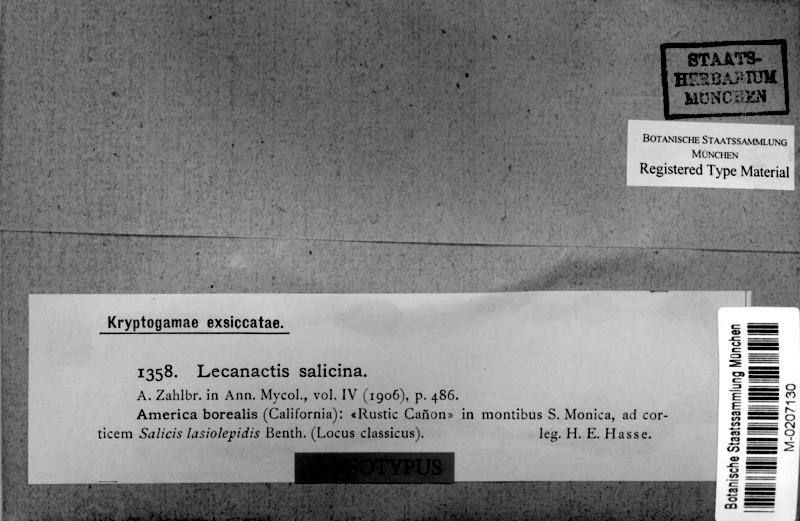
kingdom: Fungi
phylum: Ascomycota
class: Arthoniomycetes
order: Arthoniales
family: Roccellaceae
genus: Lecanactis
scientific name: Lecanactis salicina
